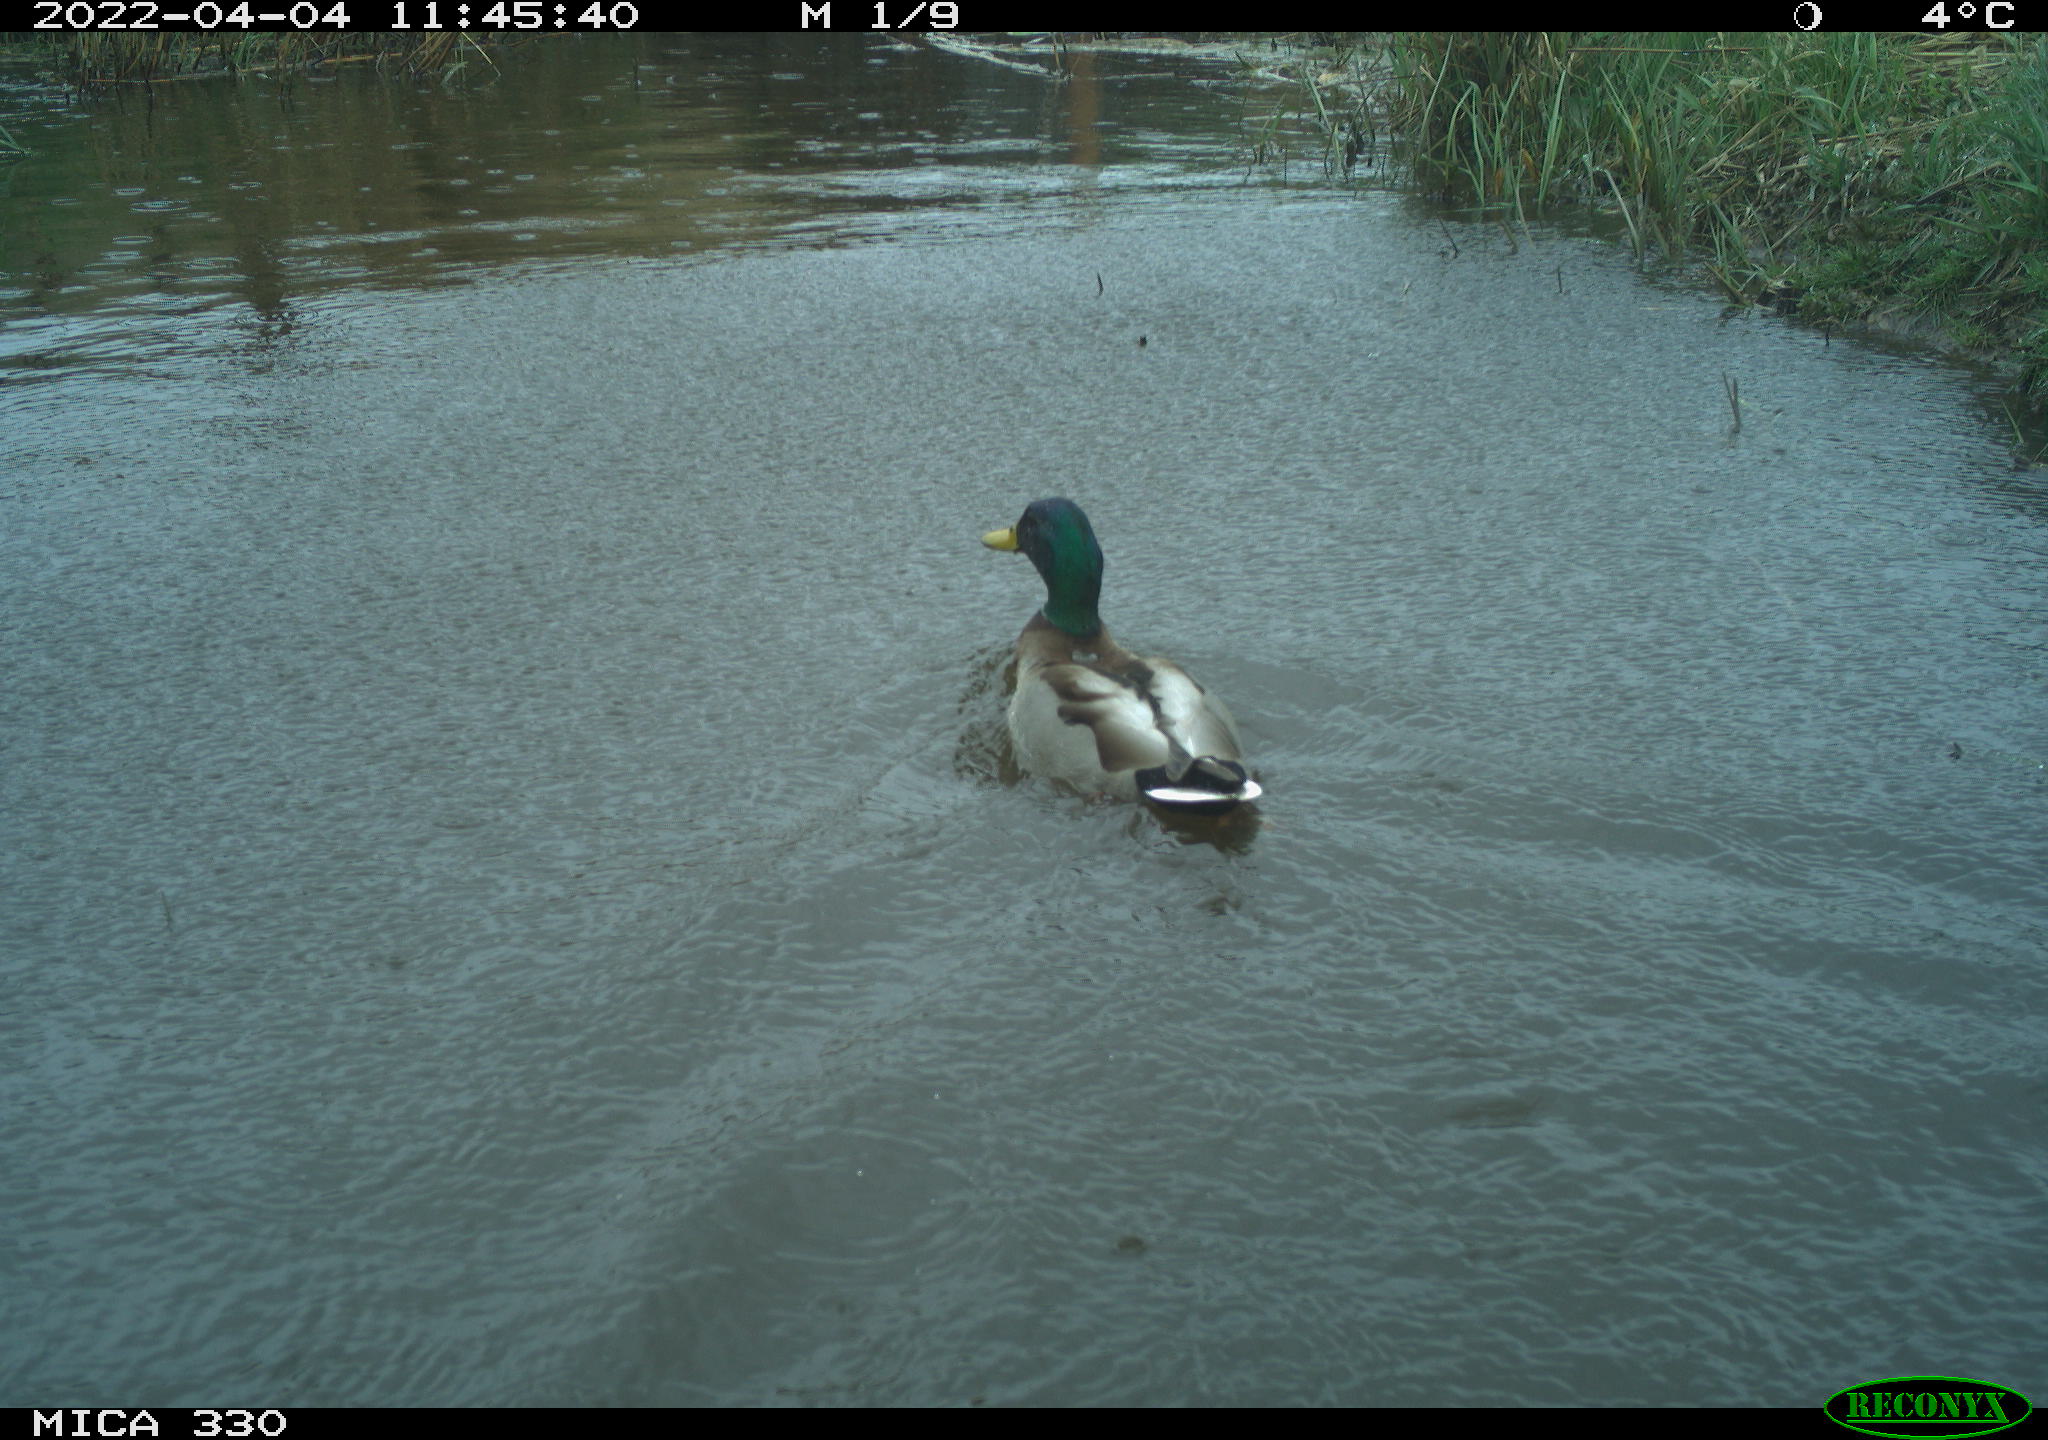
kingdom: Animalia
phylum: Chordata
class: Aves
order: Anseriformes
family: Anatidae
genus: Anas
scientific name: Anas platyrhynchos
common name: Mallard
